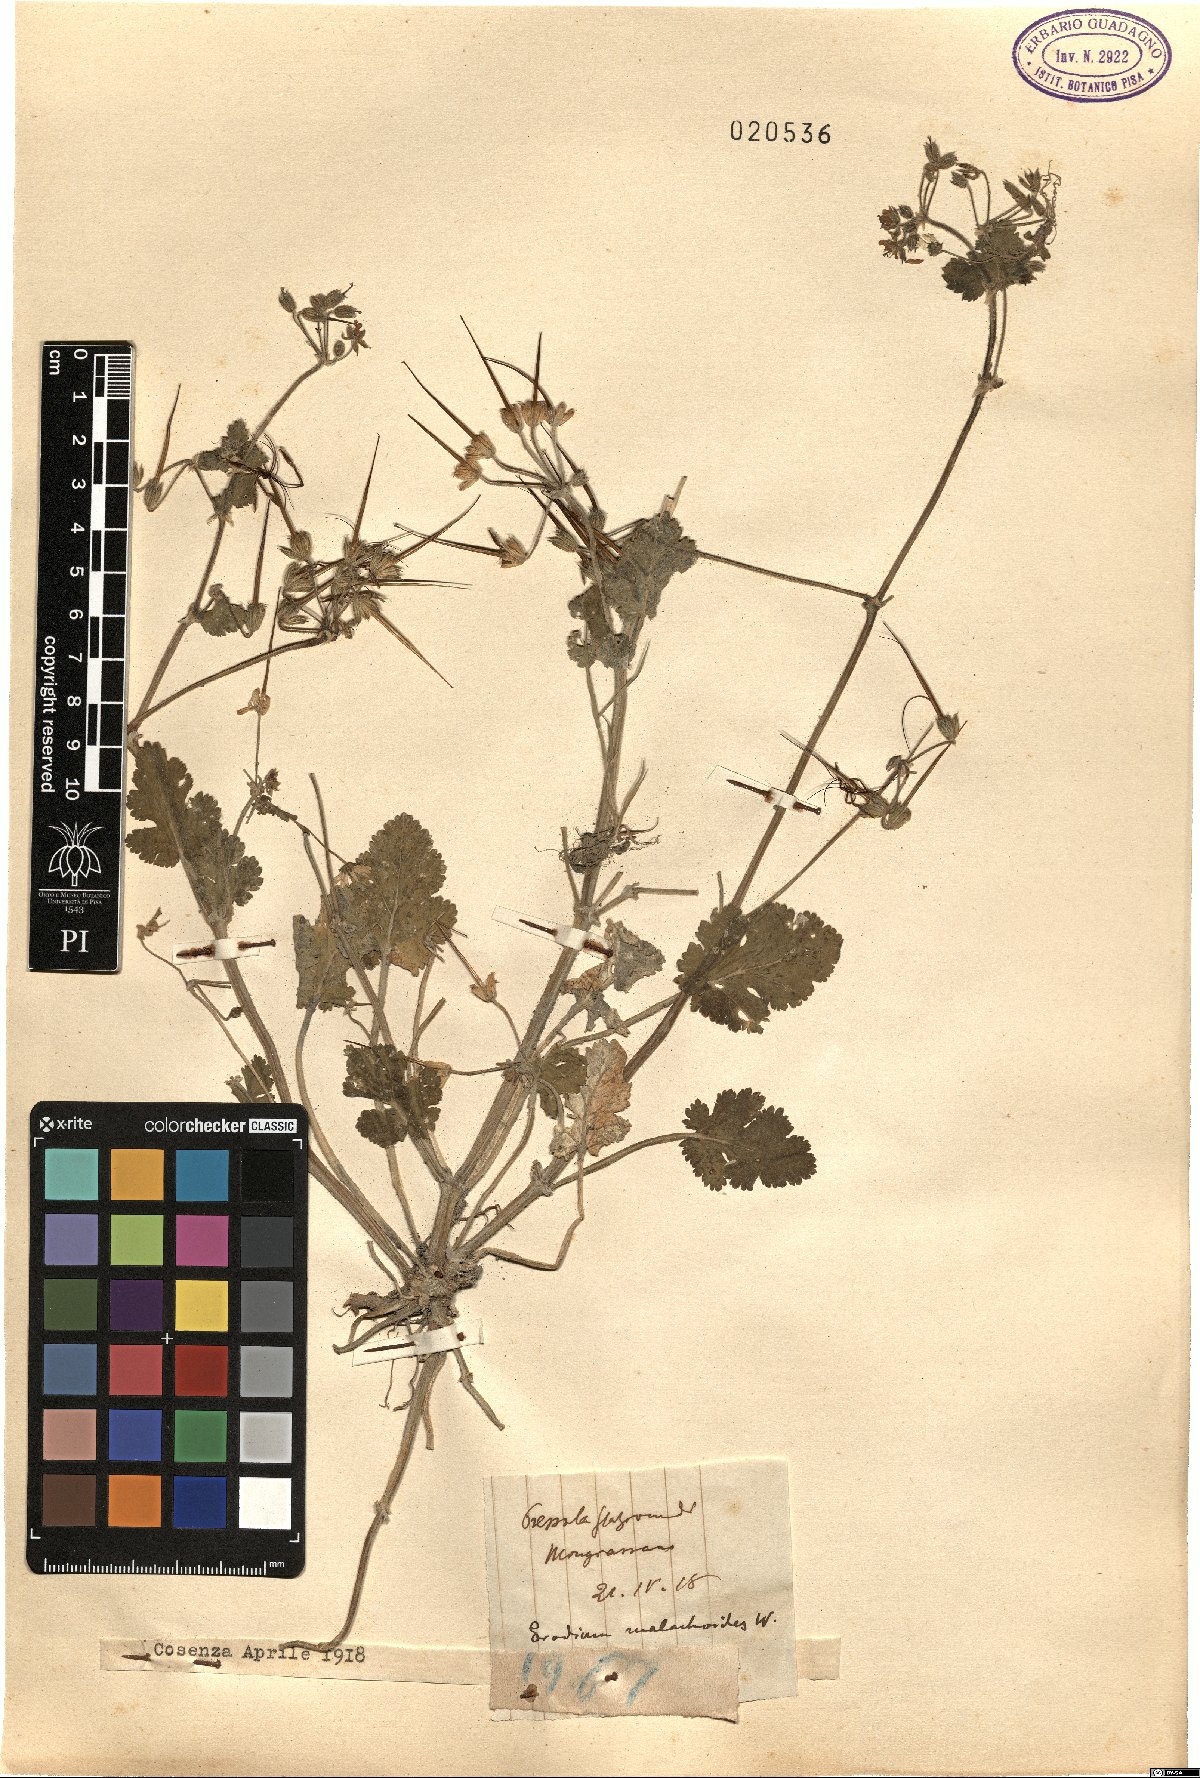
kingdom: Plantae
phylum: Tracheophyta
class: Magnoliopsida
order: Geraniales
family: Geraniaceae
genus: Erodium
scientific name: Erodium malacoides
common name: Soft stork's-bill
